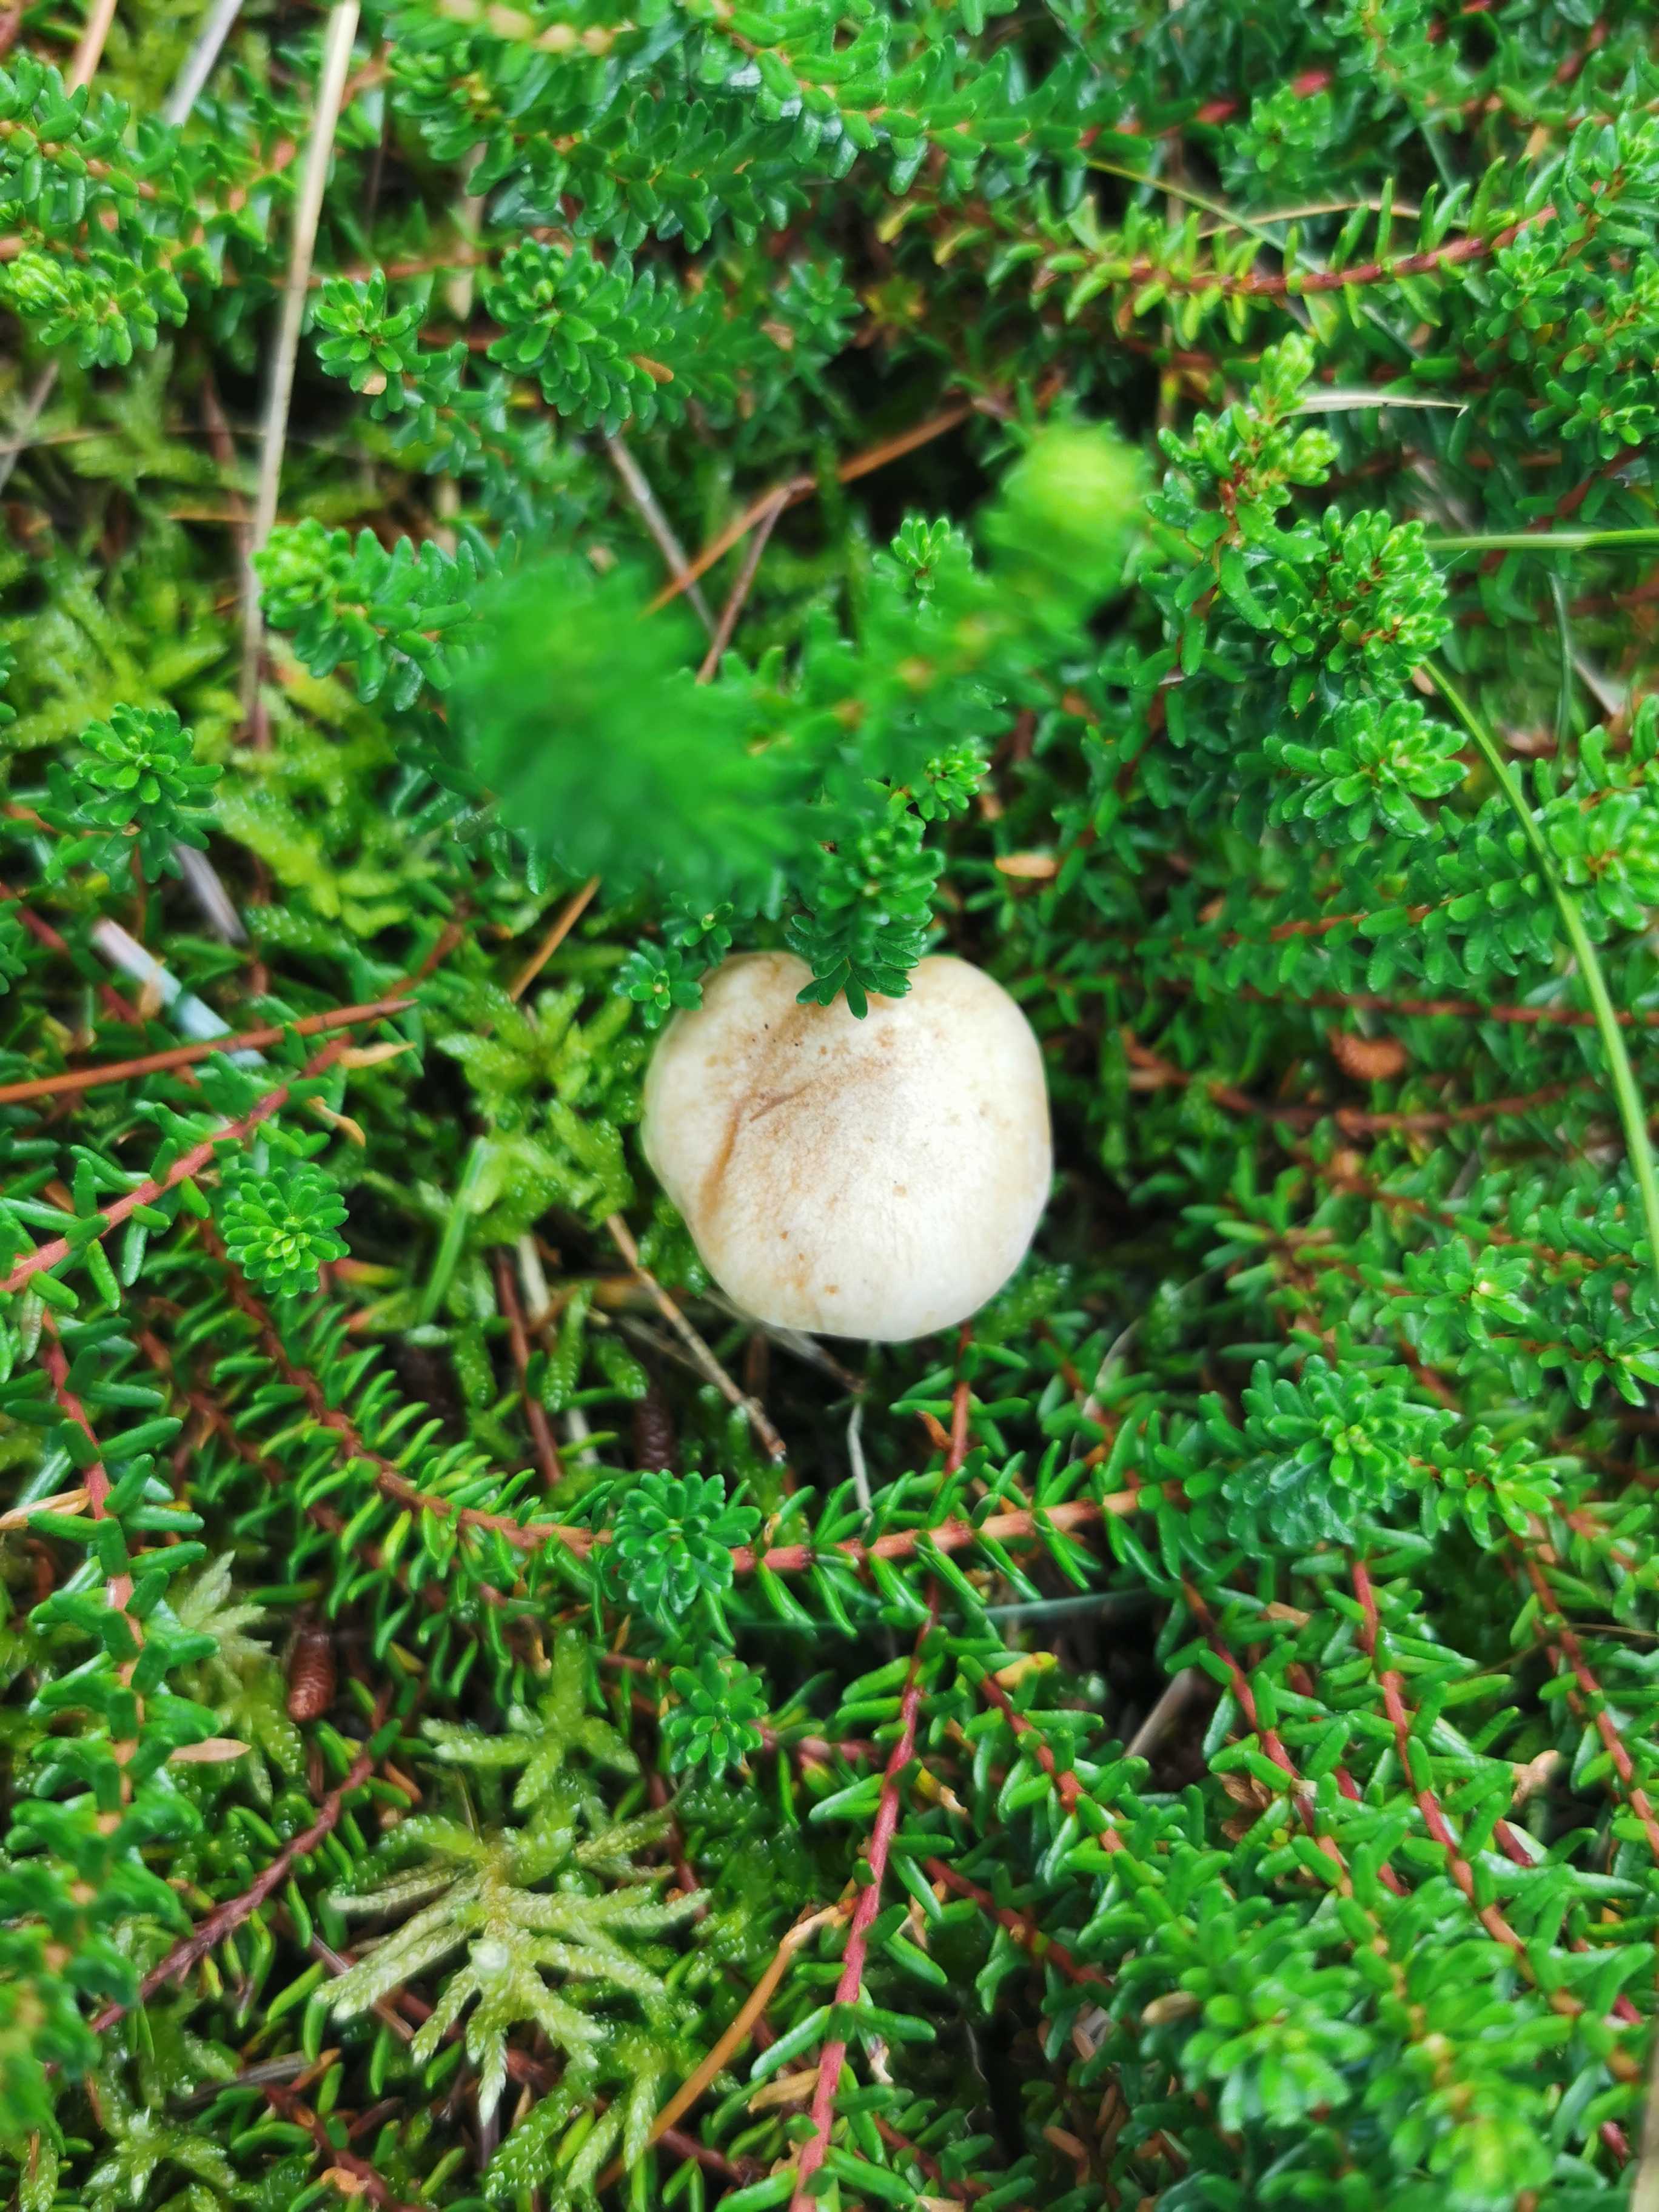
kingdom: Fungi
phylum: Basidiomycota
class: Agaricomycetes
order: Agaricales
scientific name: Agaricales
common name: champignonordenen
